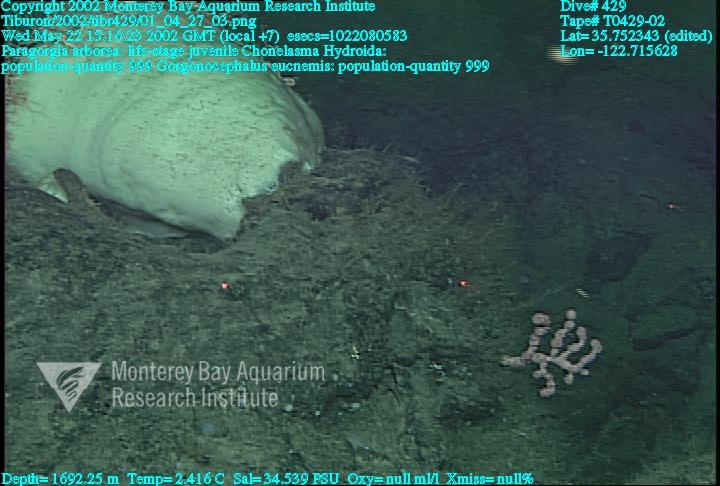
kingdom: Animalia
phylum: Porifera
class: Hexactinellida
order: Sceptrulophora
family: Euretidae
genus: Chonelasma
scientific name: Chonelasma
